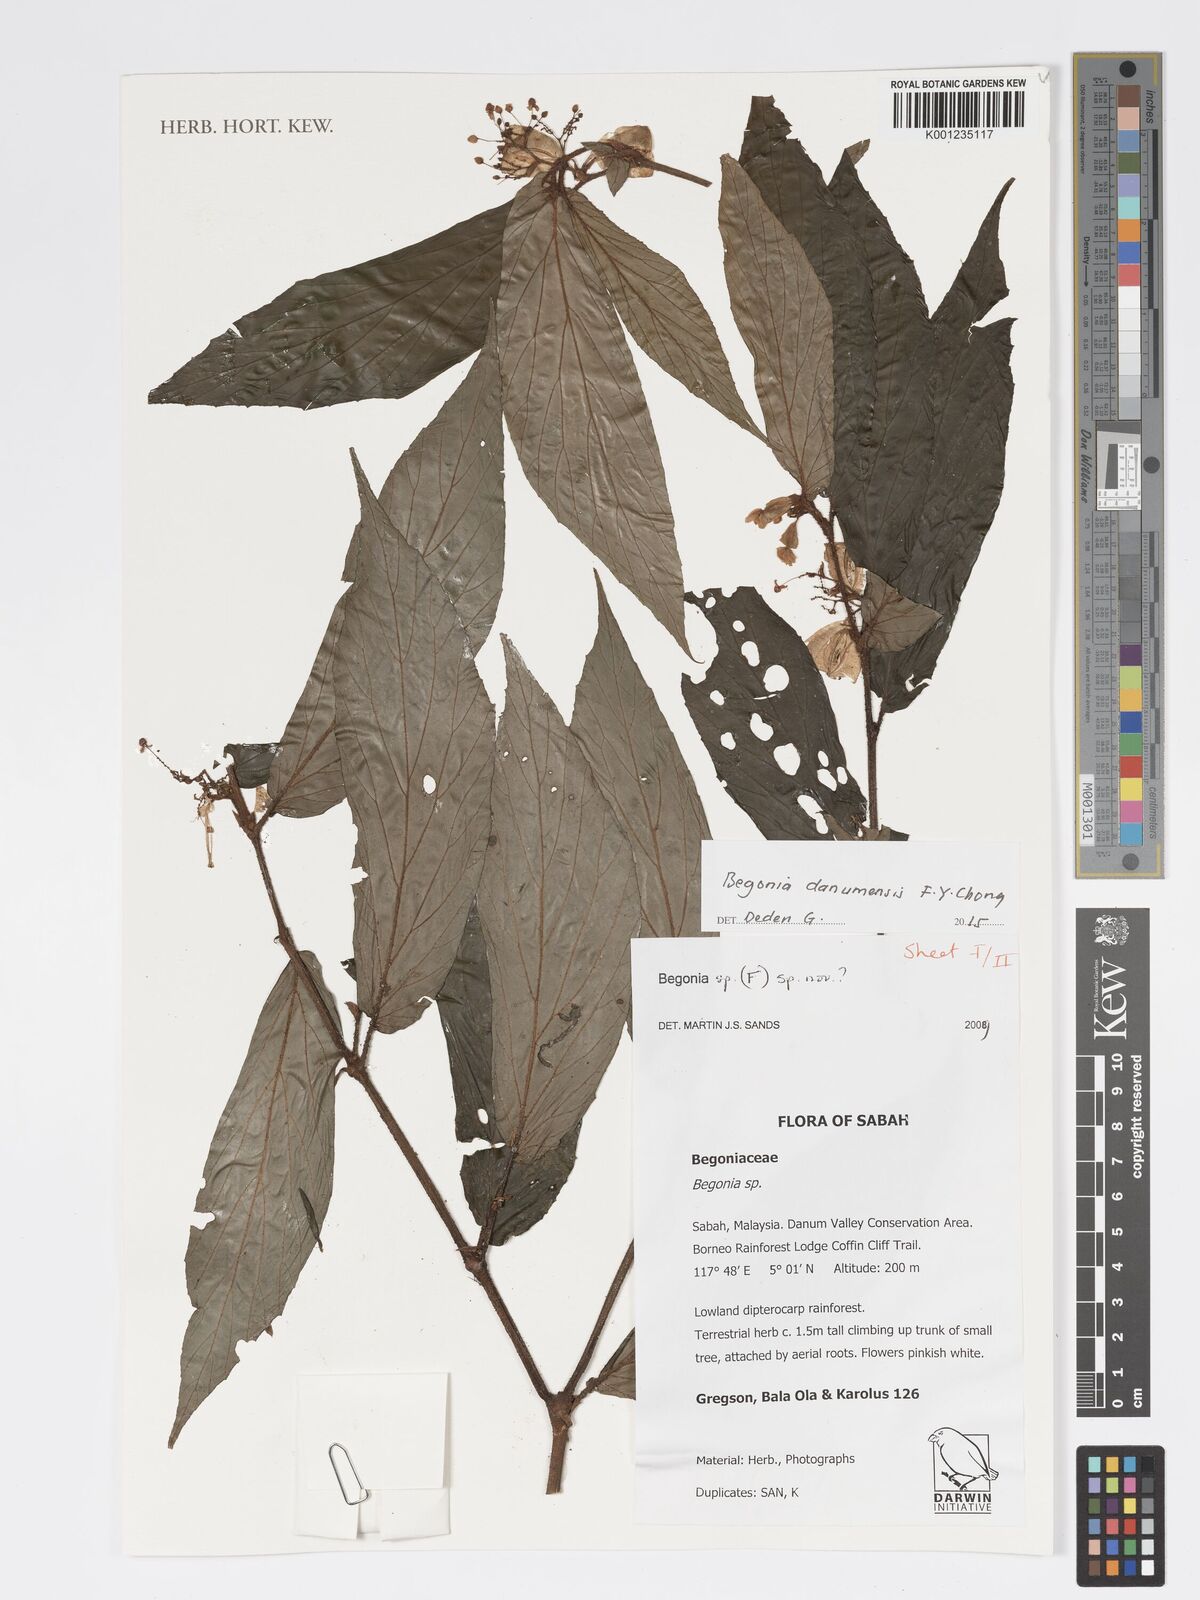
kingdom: Plantae
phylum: Tracheophyta
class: Magnoliopsida
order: Cucurbitales
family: Begoniaceae
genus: Begonia
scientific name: Begonia danumensis
